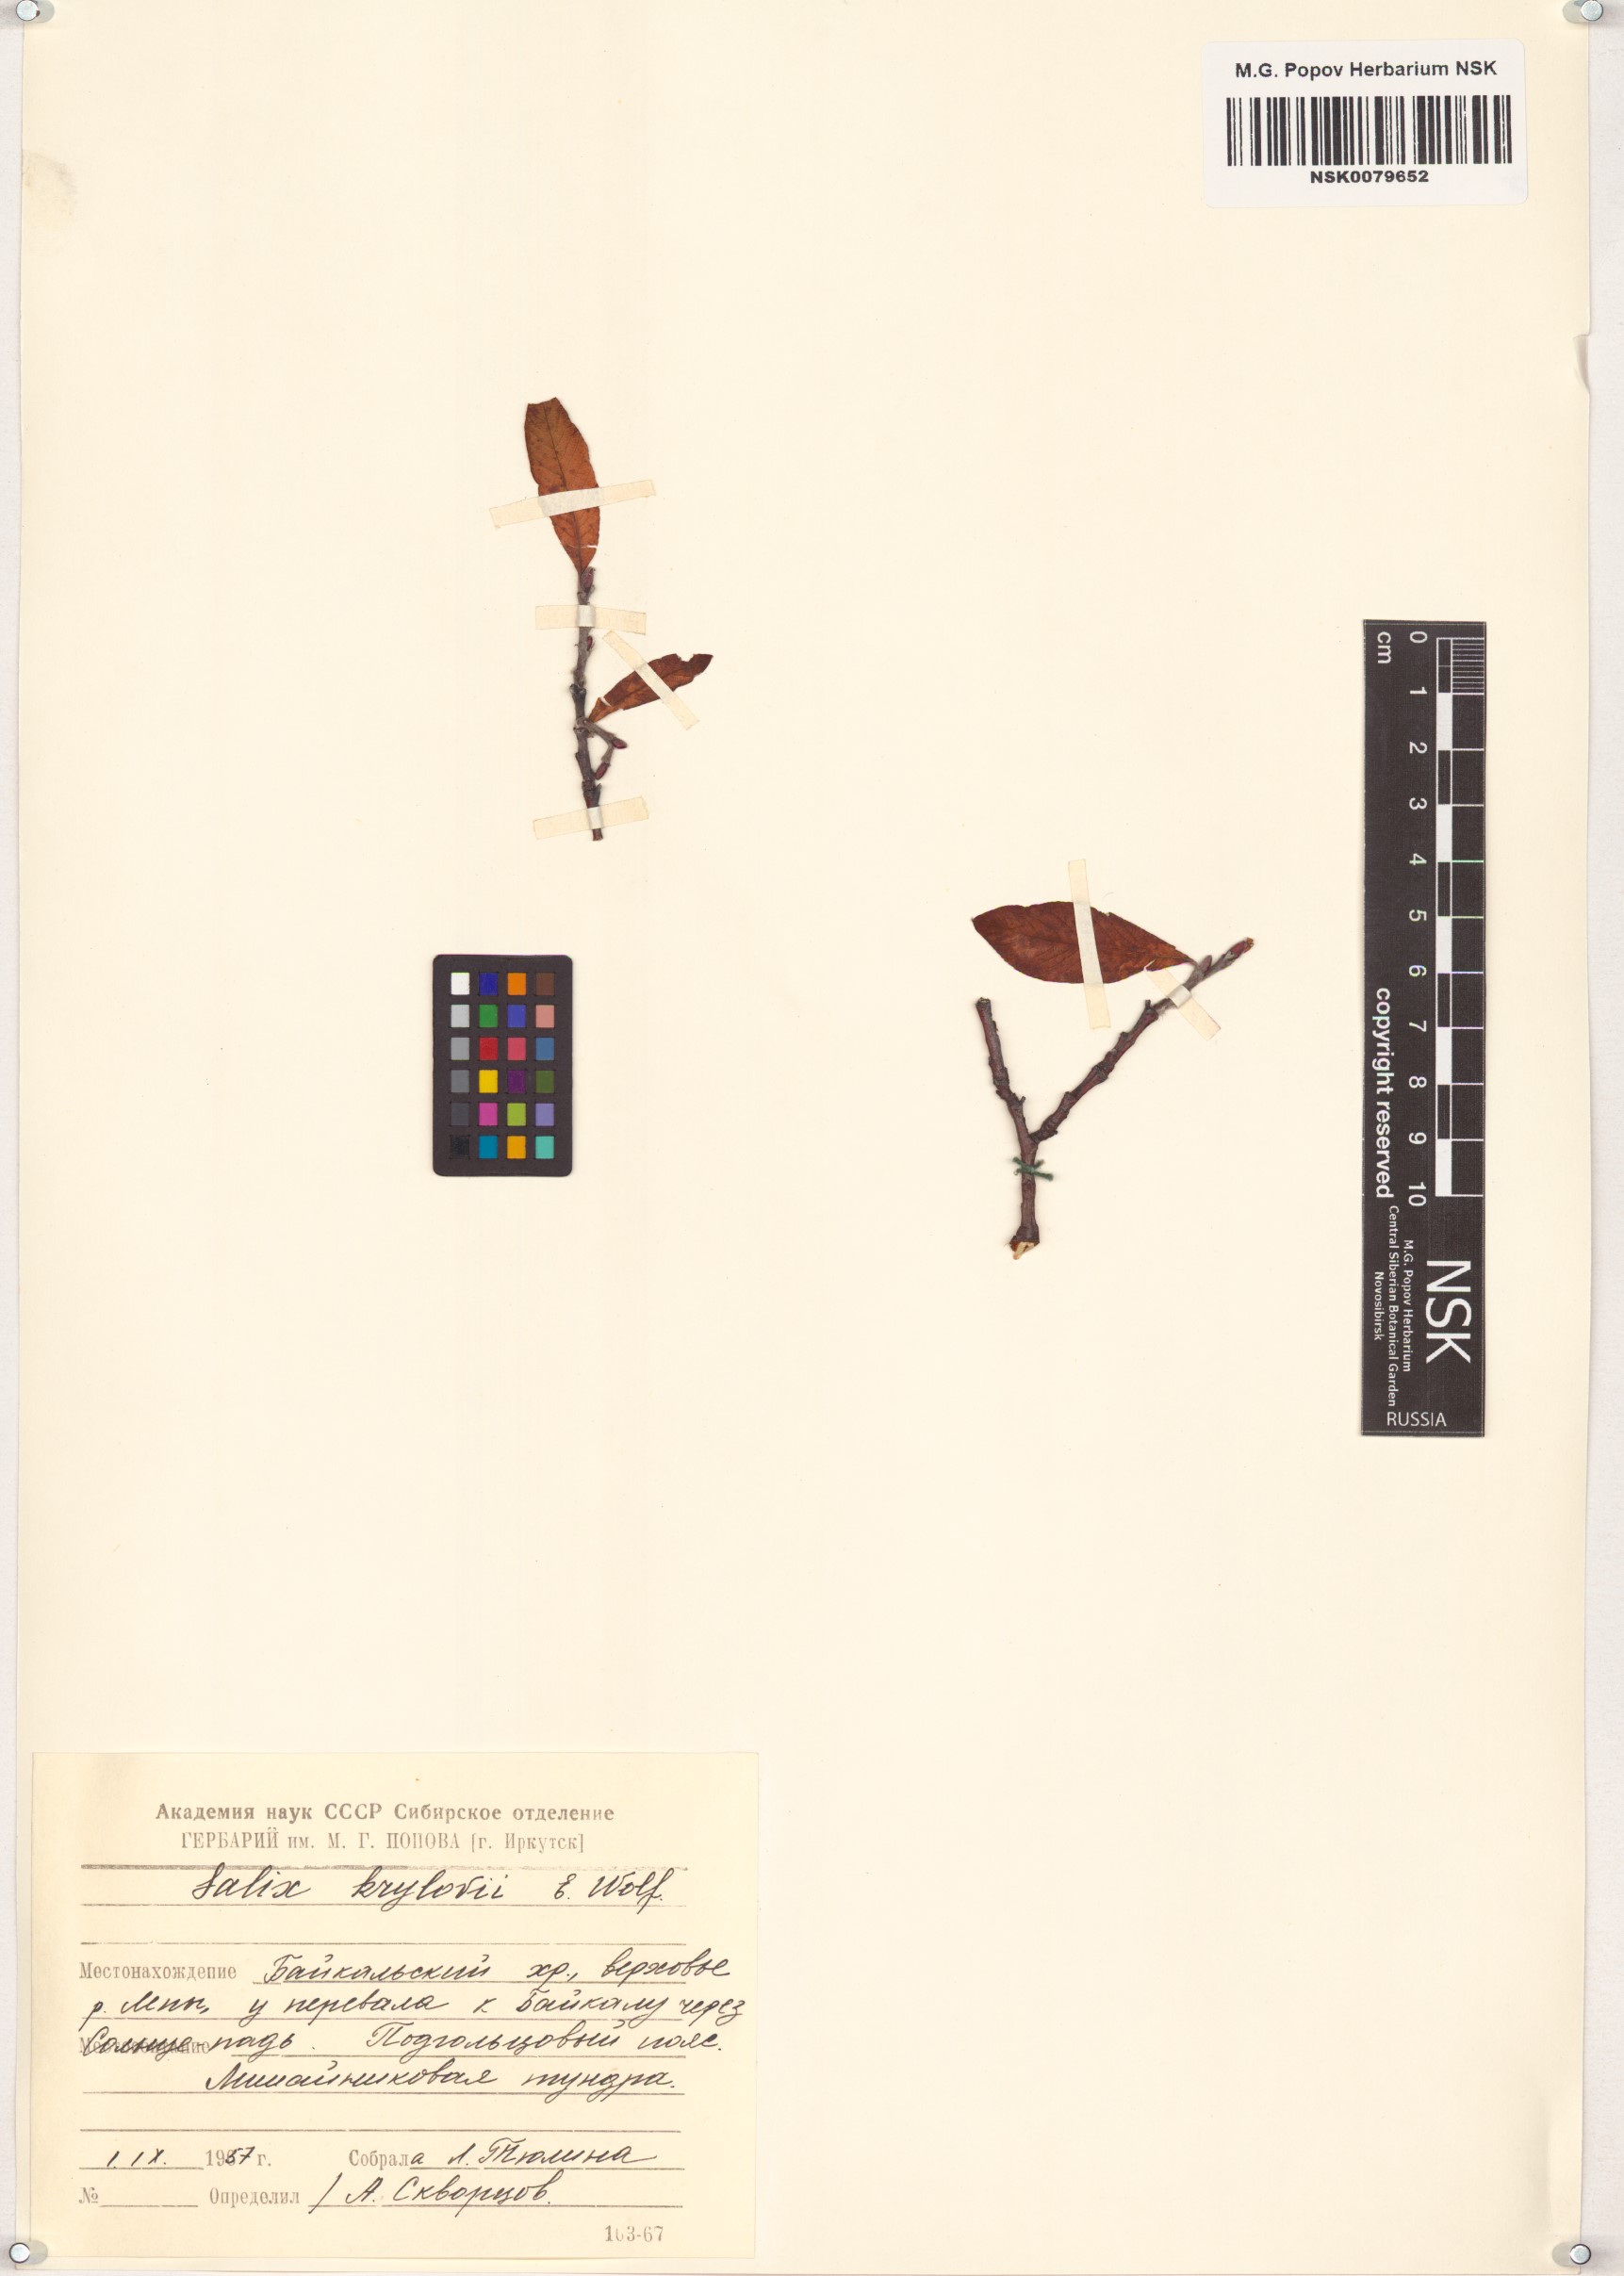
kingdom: Plantae
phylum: Tracheophyta
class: Magnoliopsida
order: Malpighiales
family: Salicaceae
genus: Salix
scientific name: Salix krylovii
